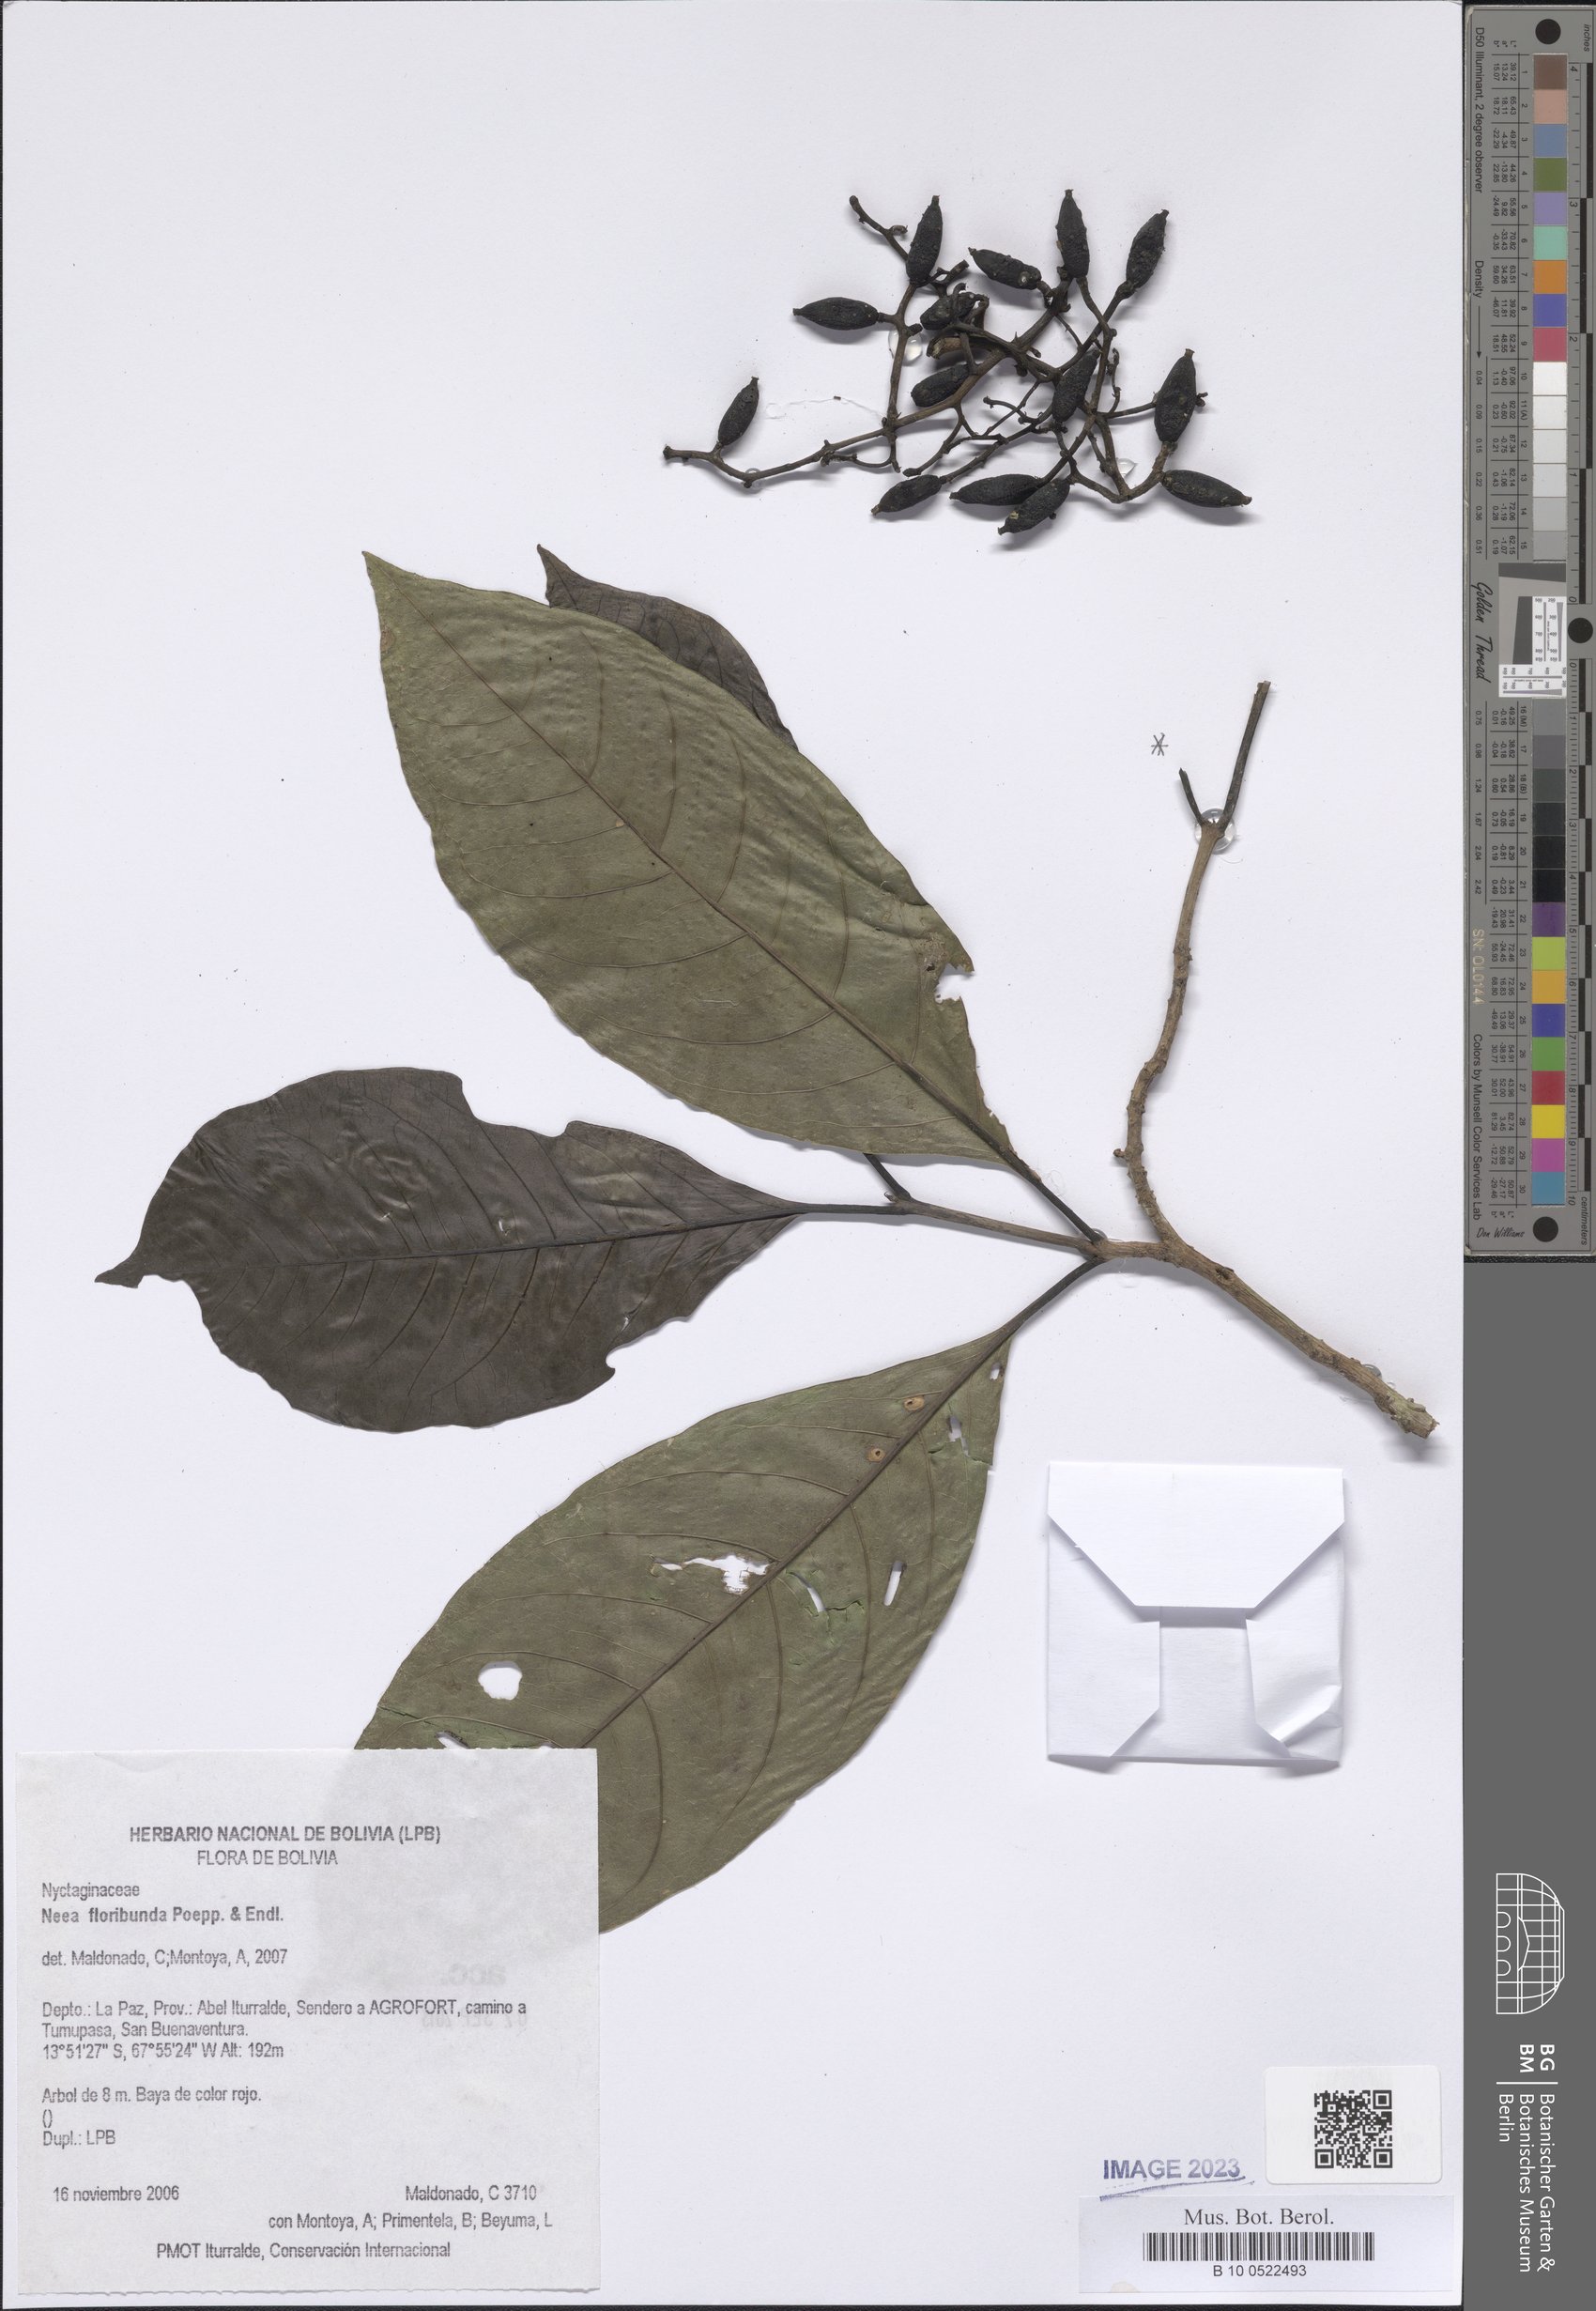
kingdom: Plantae
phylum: Tracheophyta
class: Magnoliopsida
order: Caryophyllales
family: Nyctaginaceae
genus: Neea
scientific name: Neea floribunda
